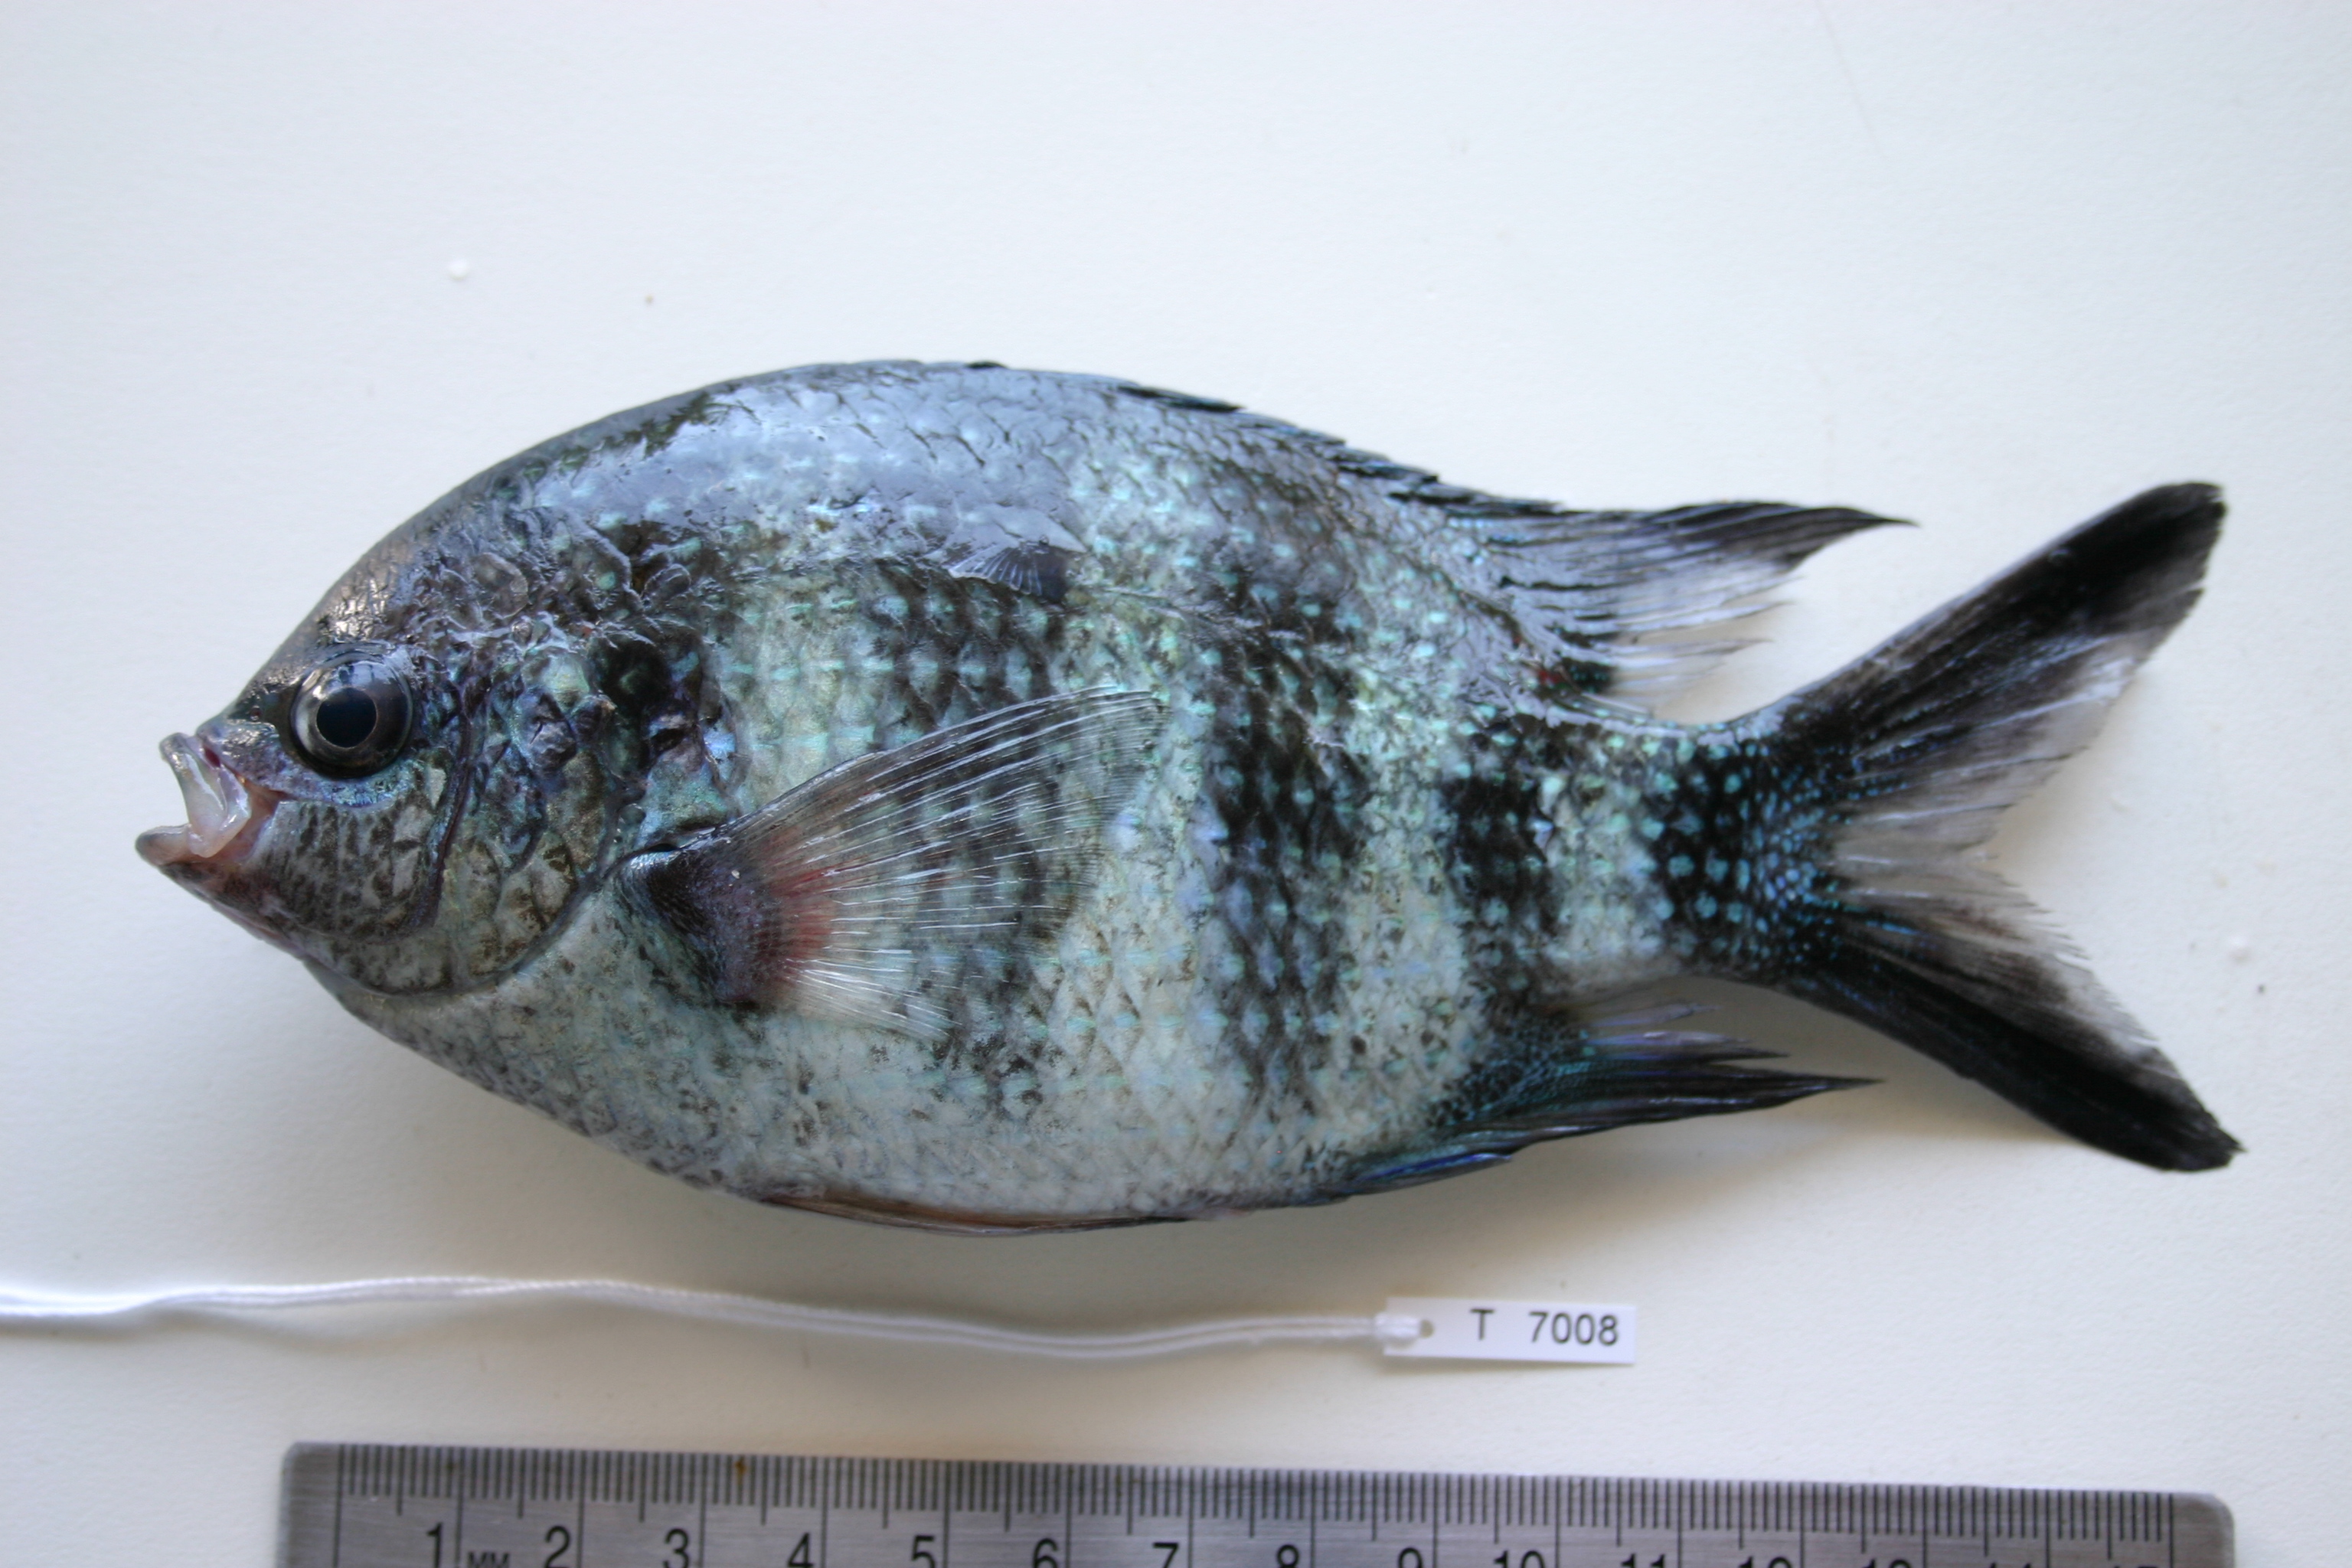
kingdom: Animalia
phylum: Chordata
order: Perciformes
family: Pomacentridae
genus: Abudefduf
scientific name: Abudefduf sexfasciatus
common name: Scissortail sergeant
